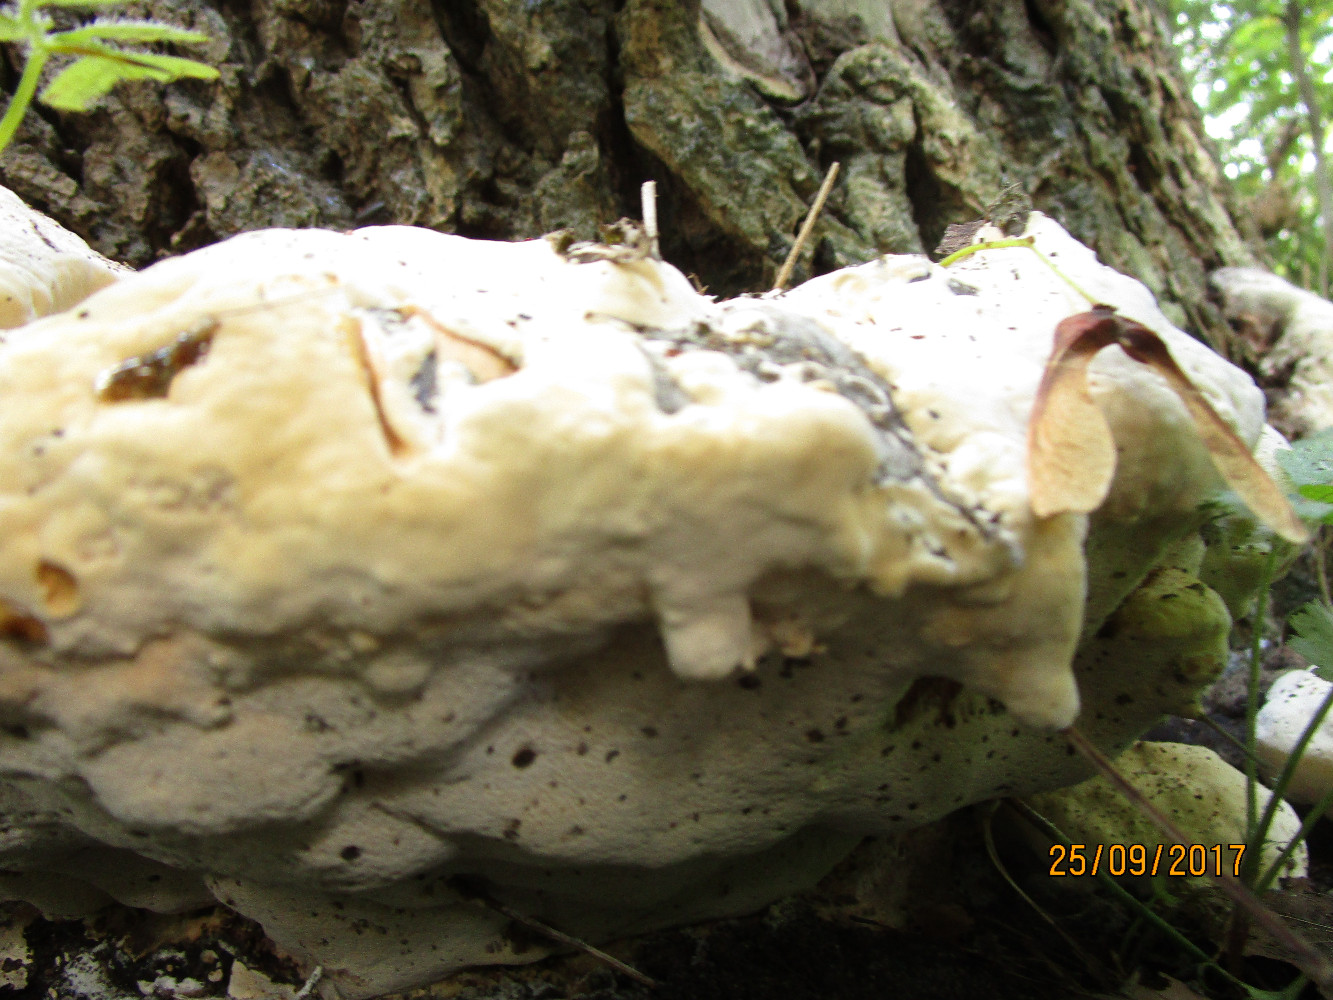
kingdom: Fungi
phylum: Basidiomycota
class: Agaricomycetes
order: Polyporales
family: Polyporaceae
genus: Vanderbylia
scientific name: Vanderbylia fraxinea
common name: stor kanelporesvamp
